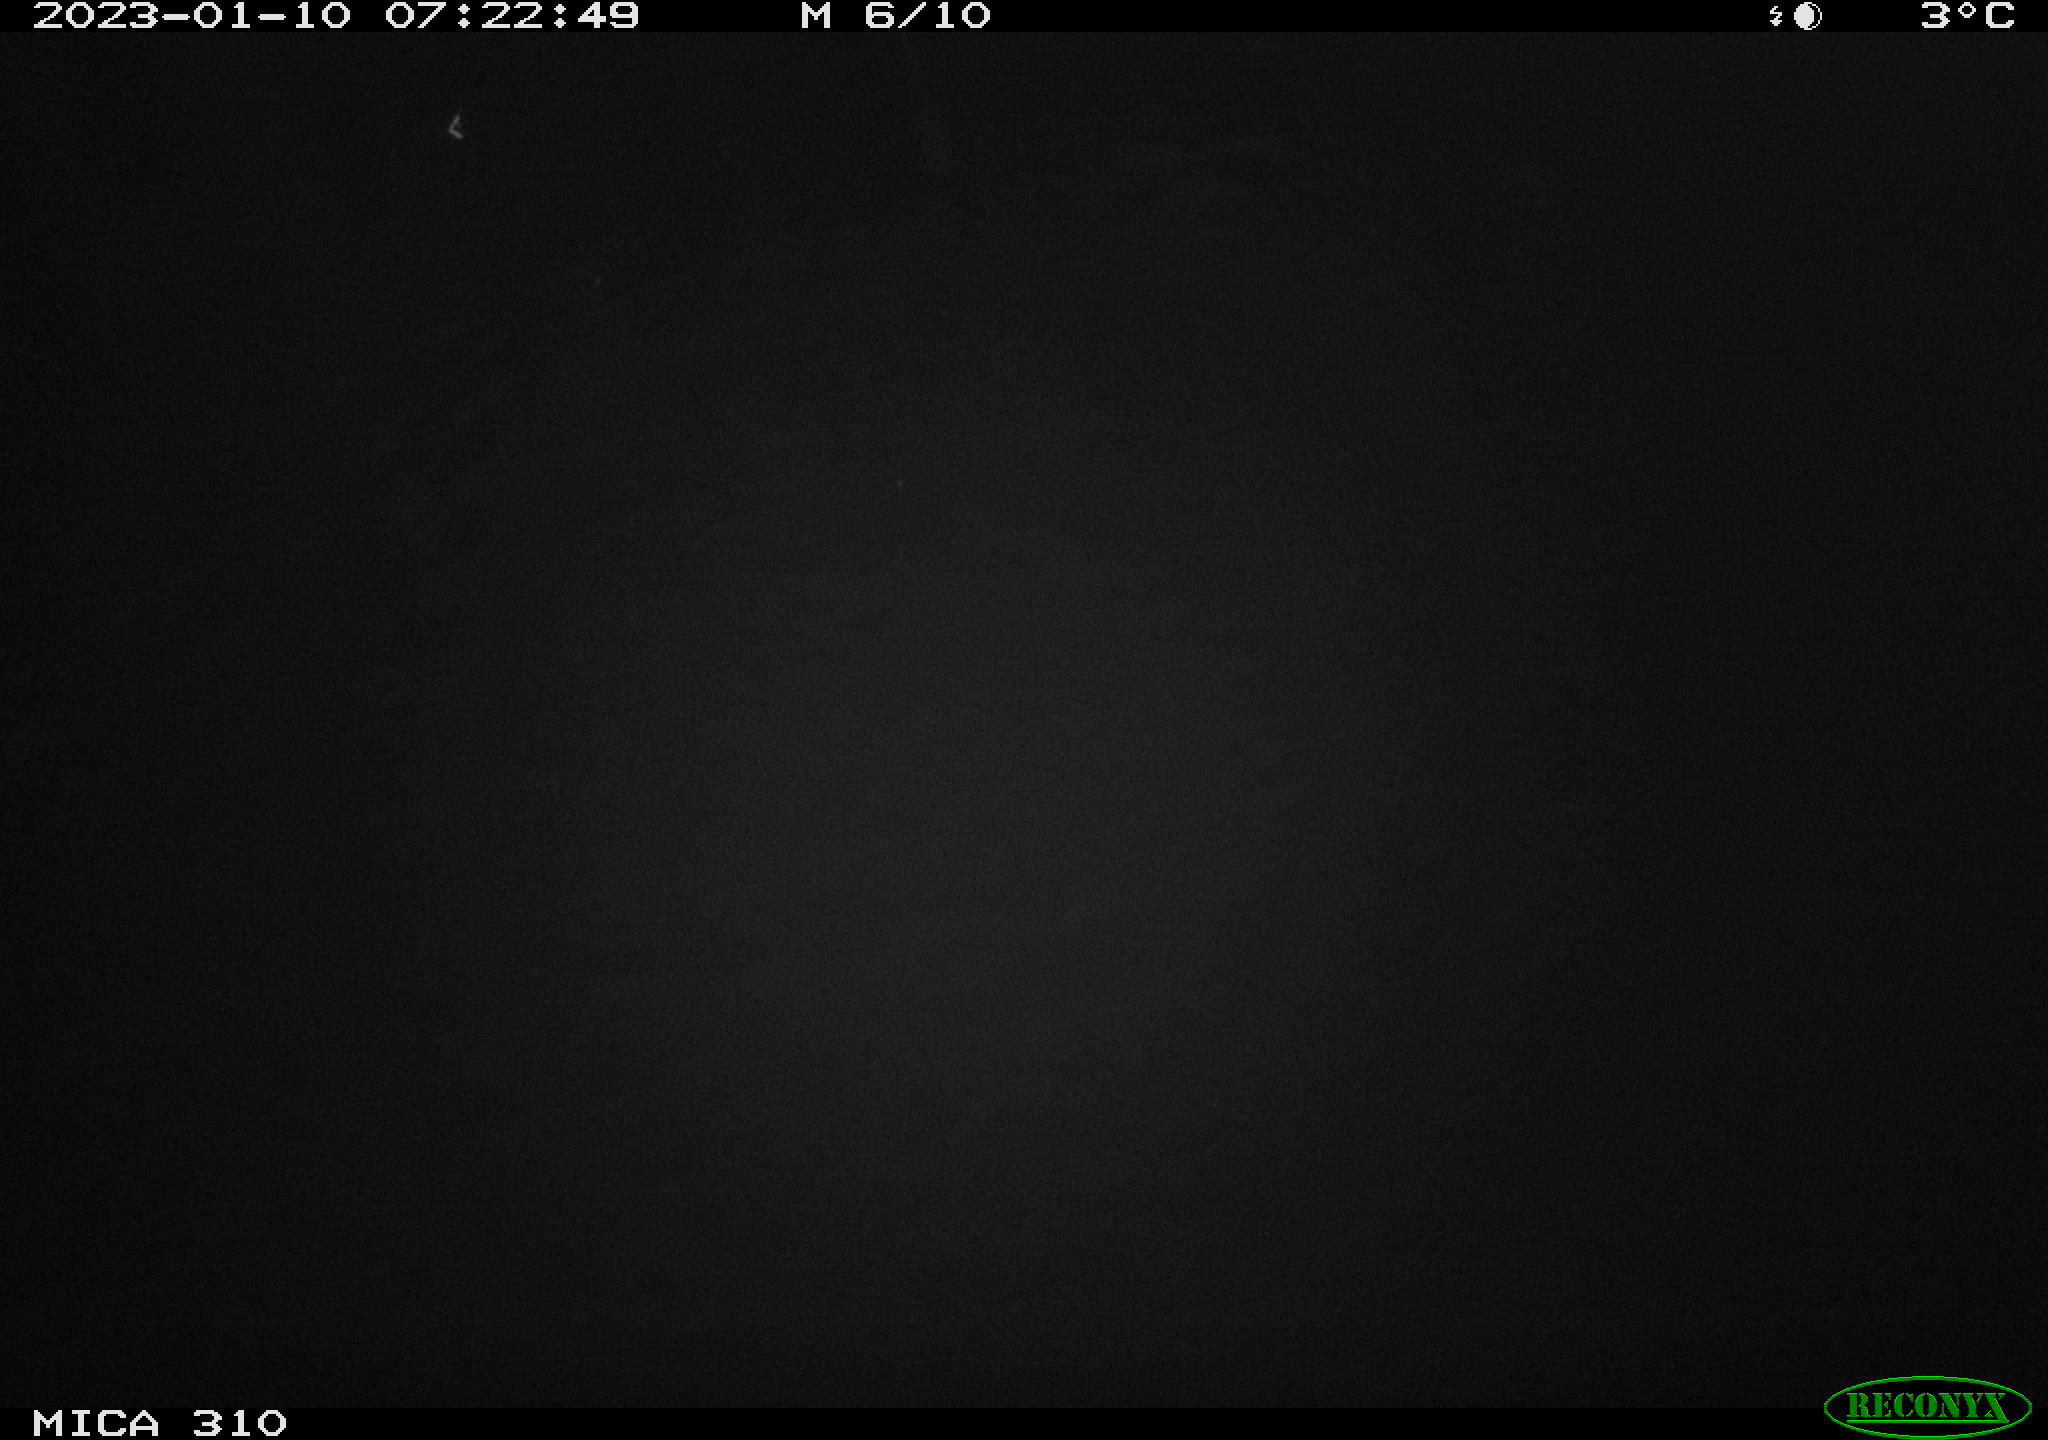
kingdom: Animalia
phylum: Chordata
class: Aves
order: Anseriformes
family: Anatidae
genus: Anas
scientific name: Anas
